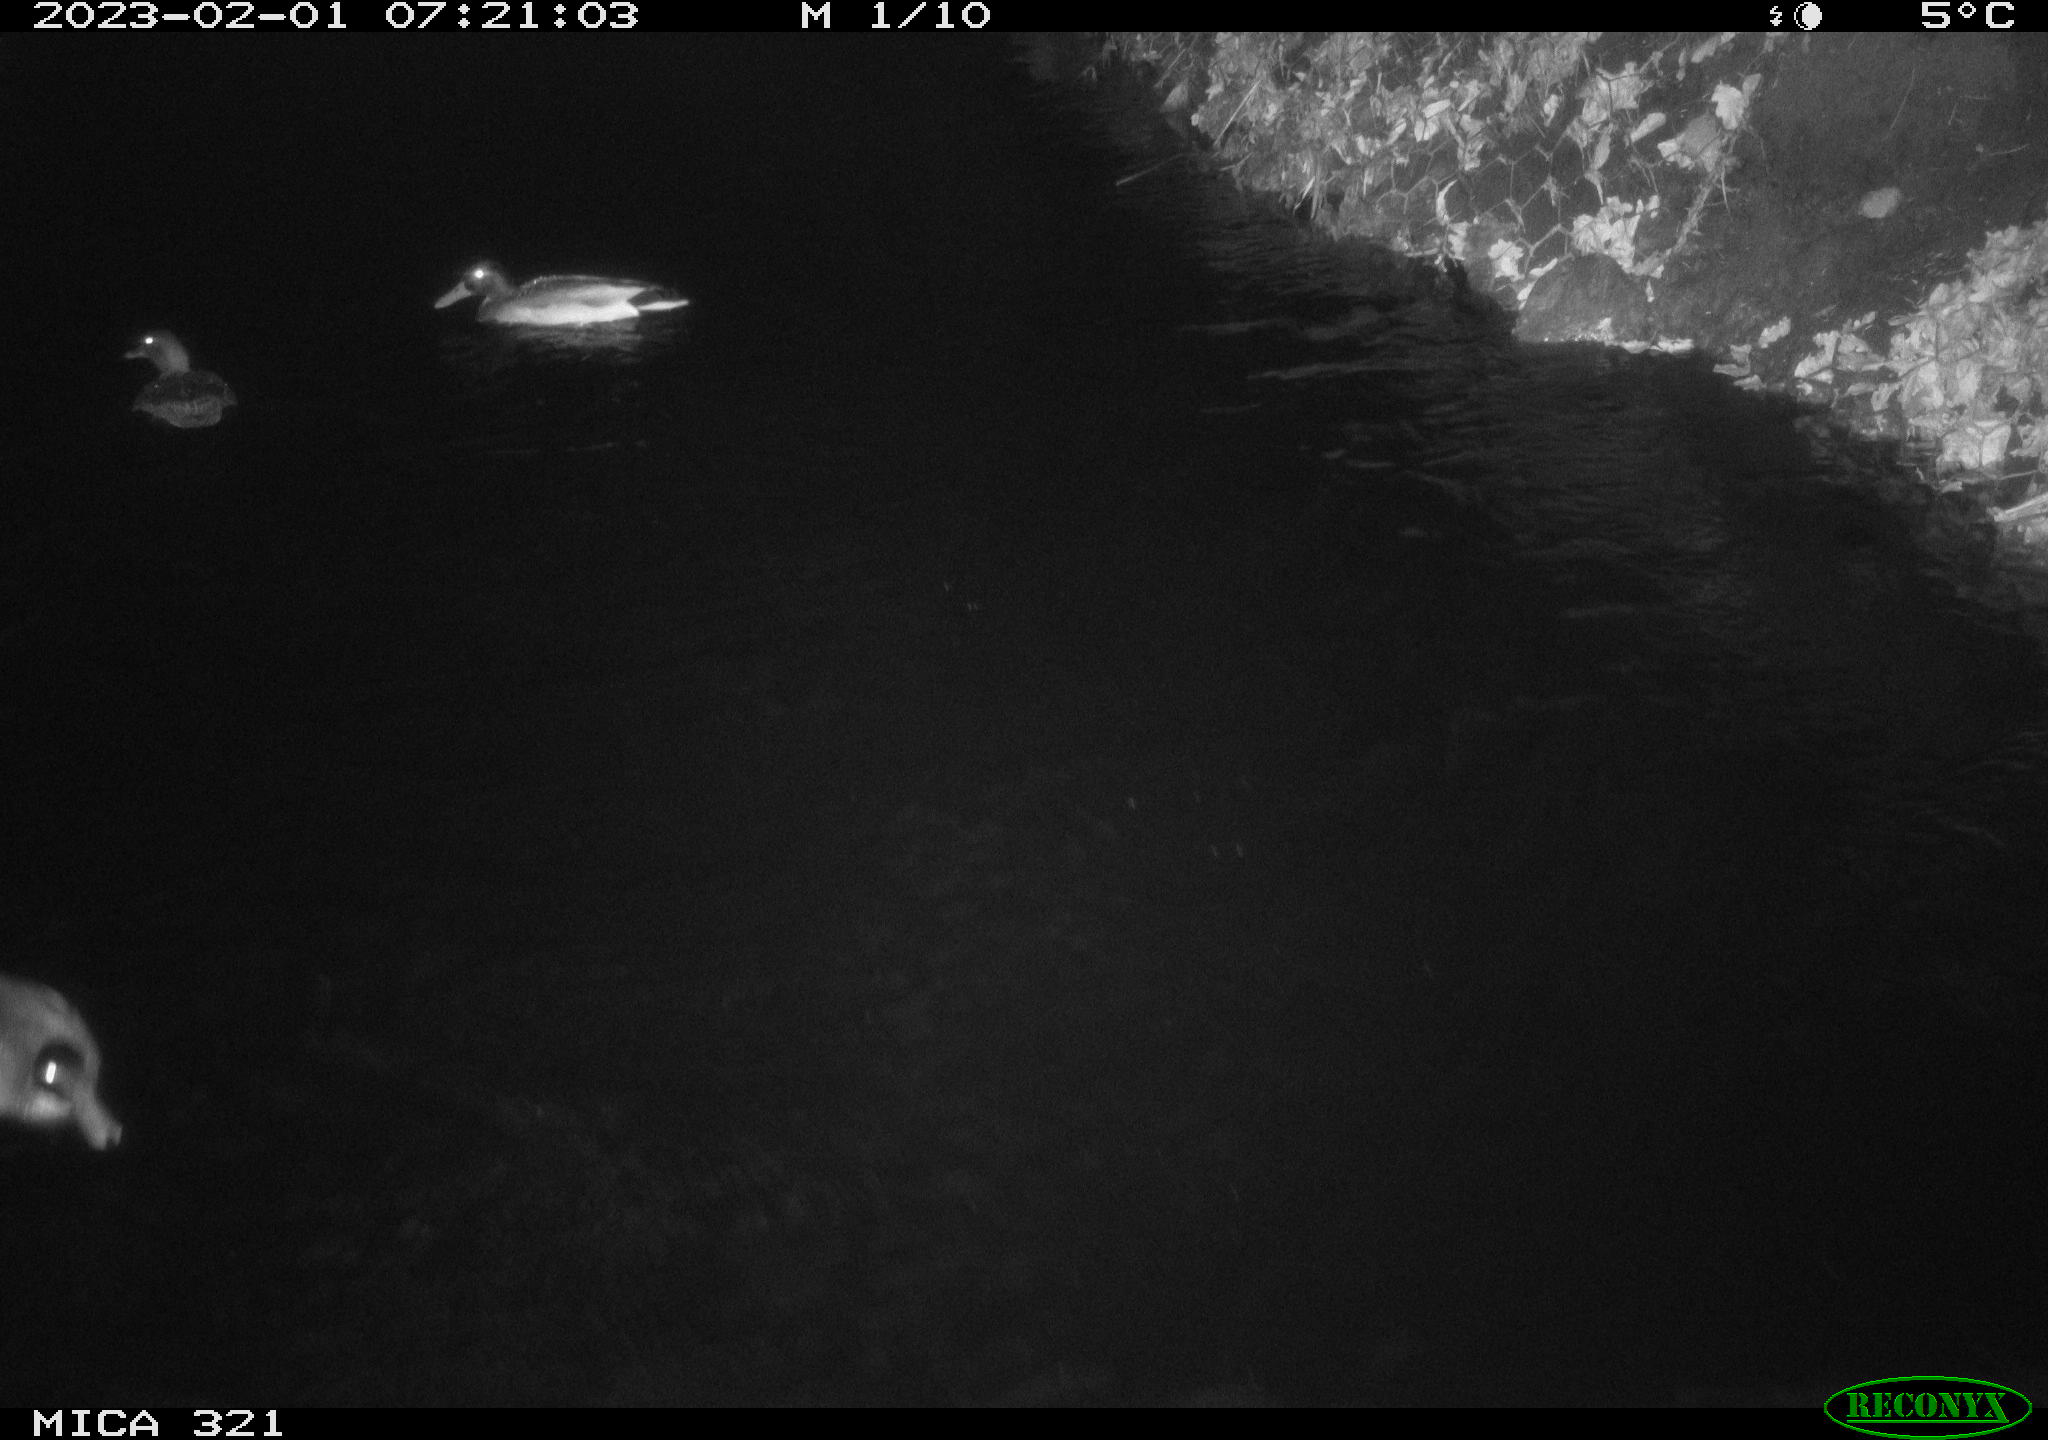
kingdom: Animalia
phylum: Chordata
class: Aves
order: Anseriformes
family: Anatidae
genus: Anas
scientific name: Anas
